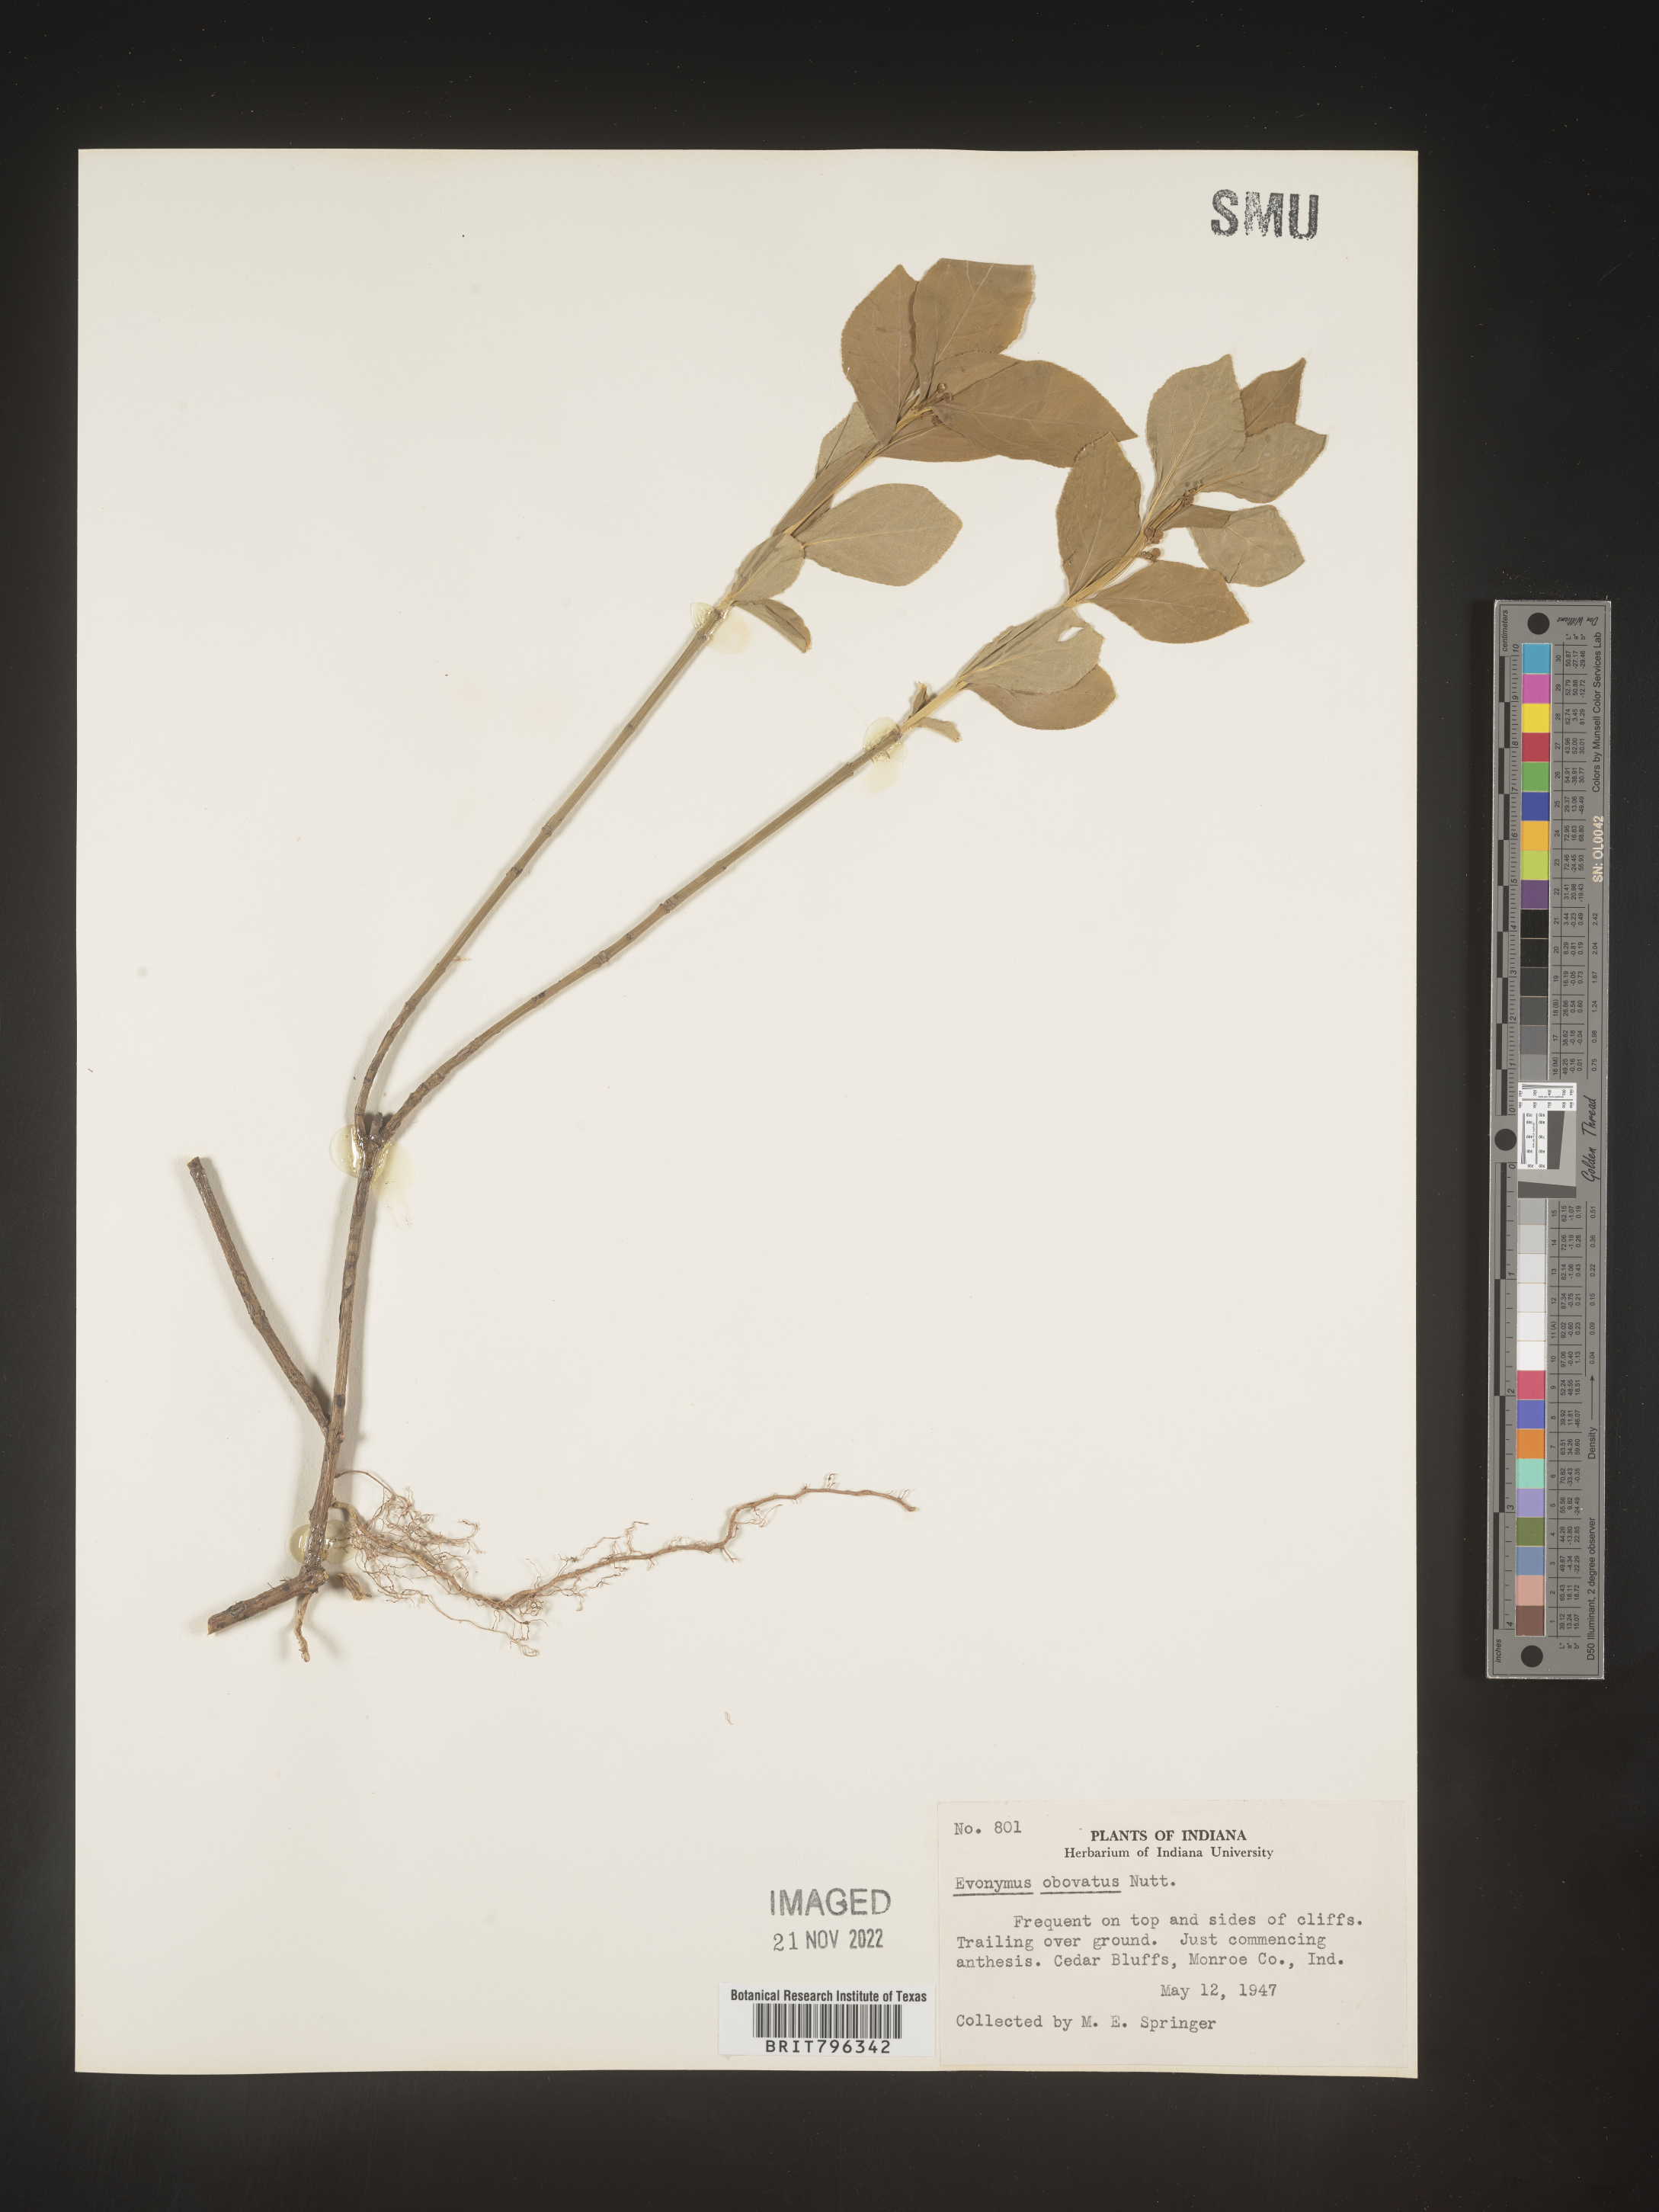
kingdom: Plantae
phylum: Tracheophyta
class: Magnoliopsida
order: Celastrales
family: Celastraceae
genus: Euonymus
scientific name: Euonymus obovatus
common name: Running strawberry-bush
